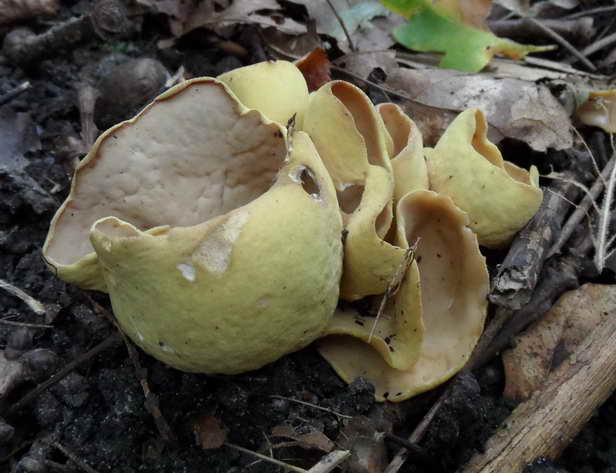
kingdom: Fungi
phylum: Ascomycota
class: Pezizomycetes
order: Pezizales
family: Otideaceae
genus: Otidea
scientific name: Otidea cantharella
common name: citrongul ørebæger
